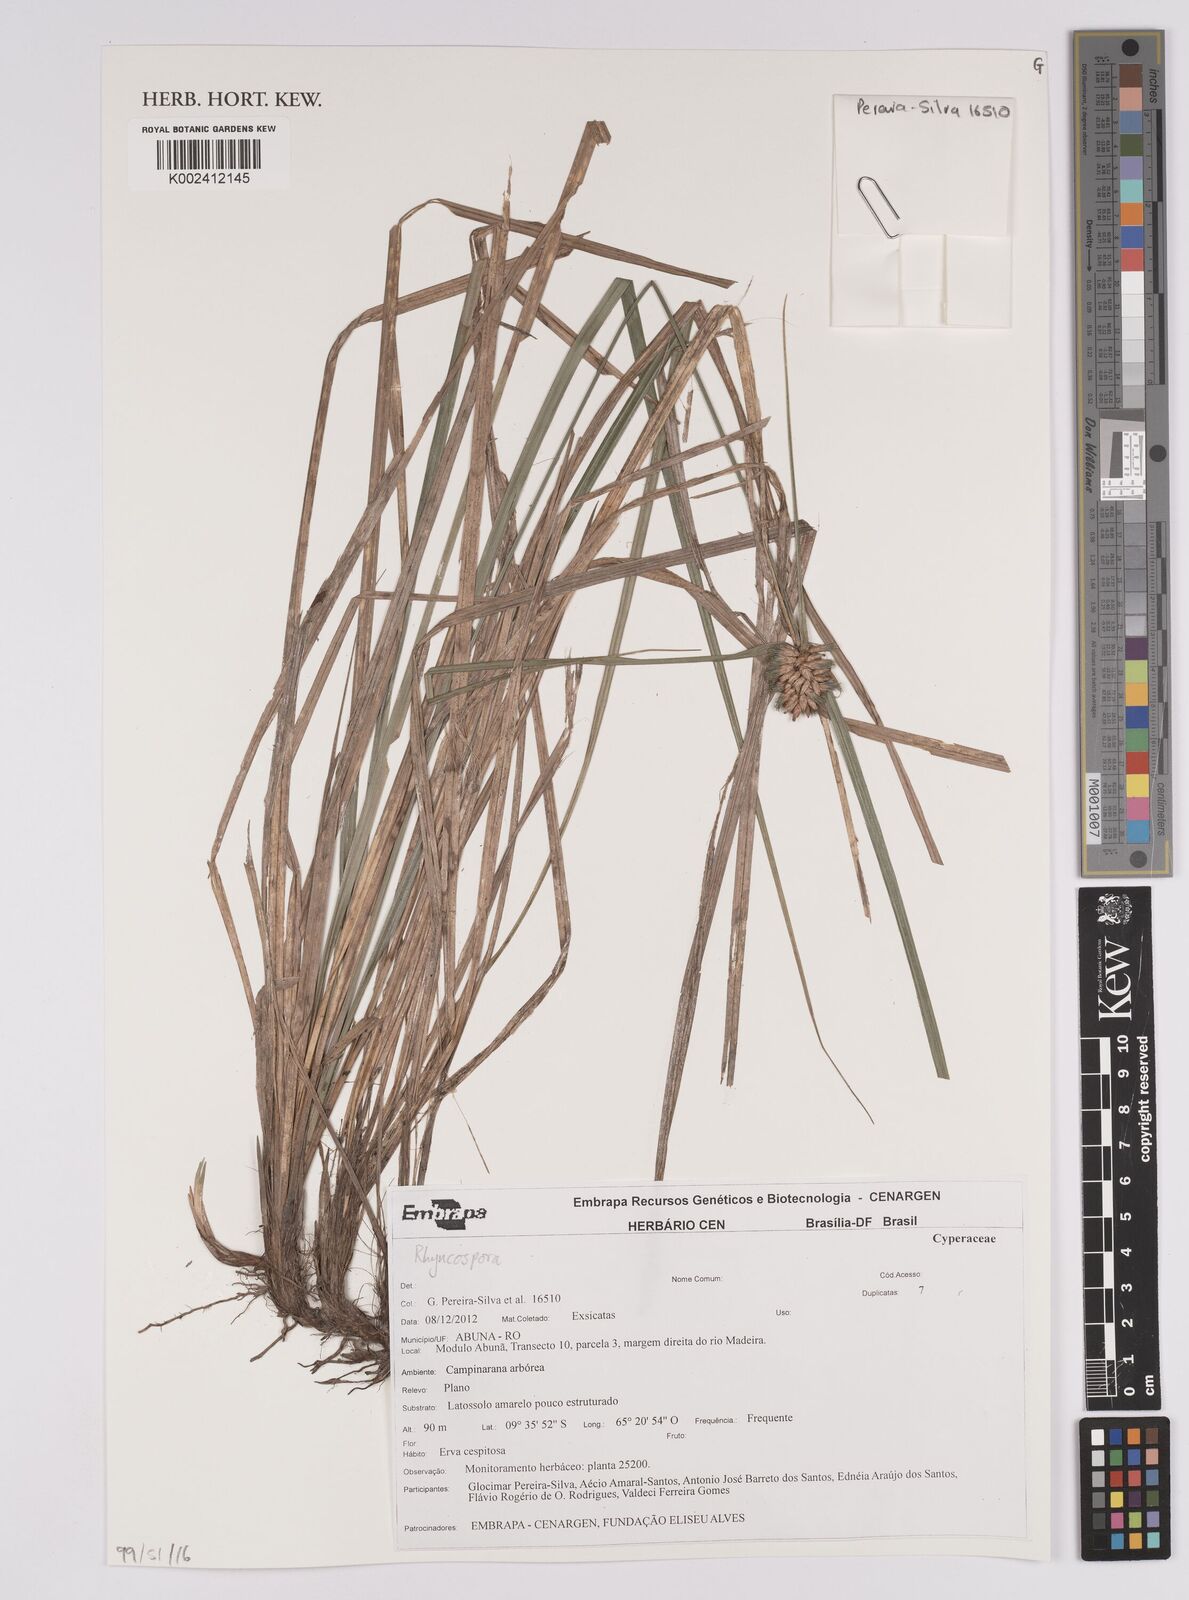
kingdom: Plantae
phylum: Tracheophyta
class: Liliopsida
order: Poales
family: Cyperaceae
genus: Rhynchospora
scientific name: Rhynchospora
